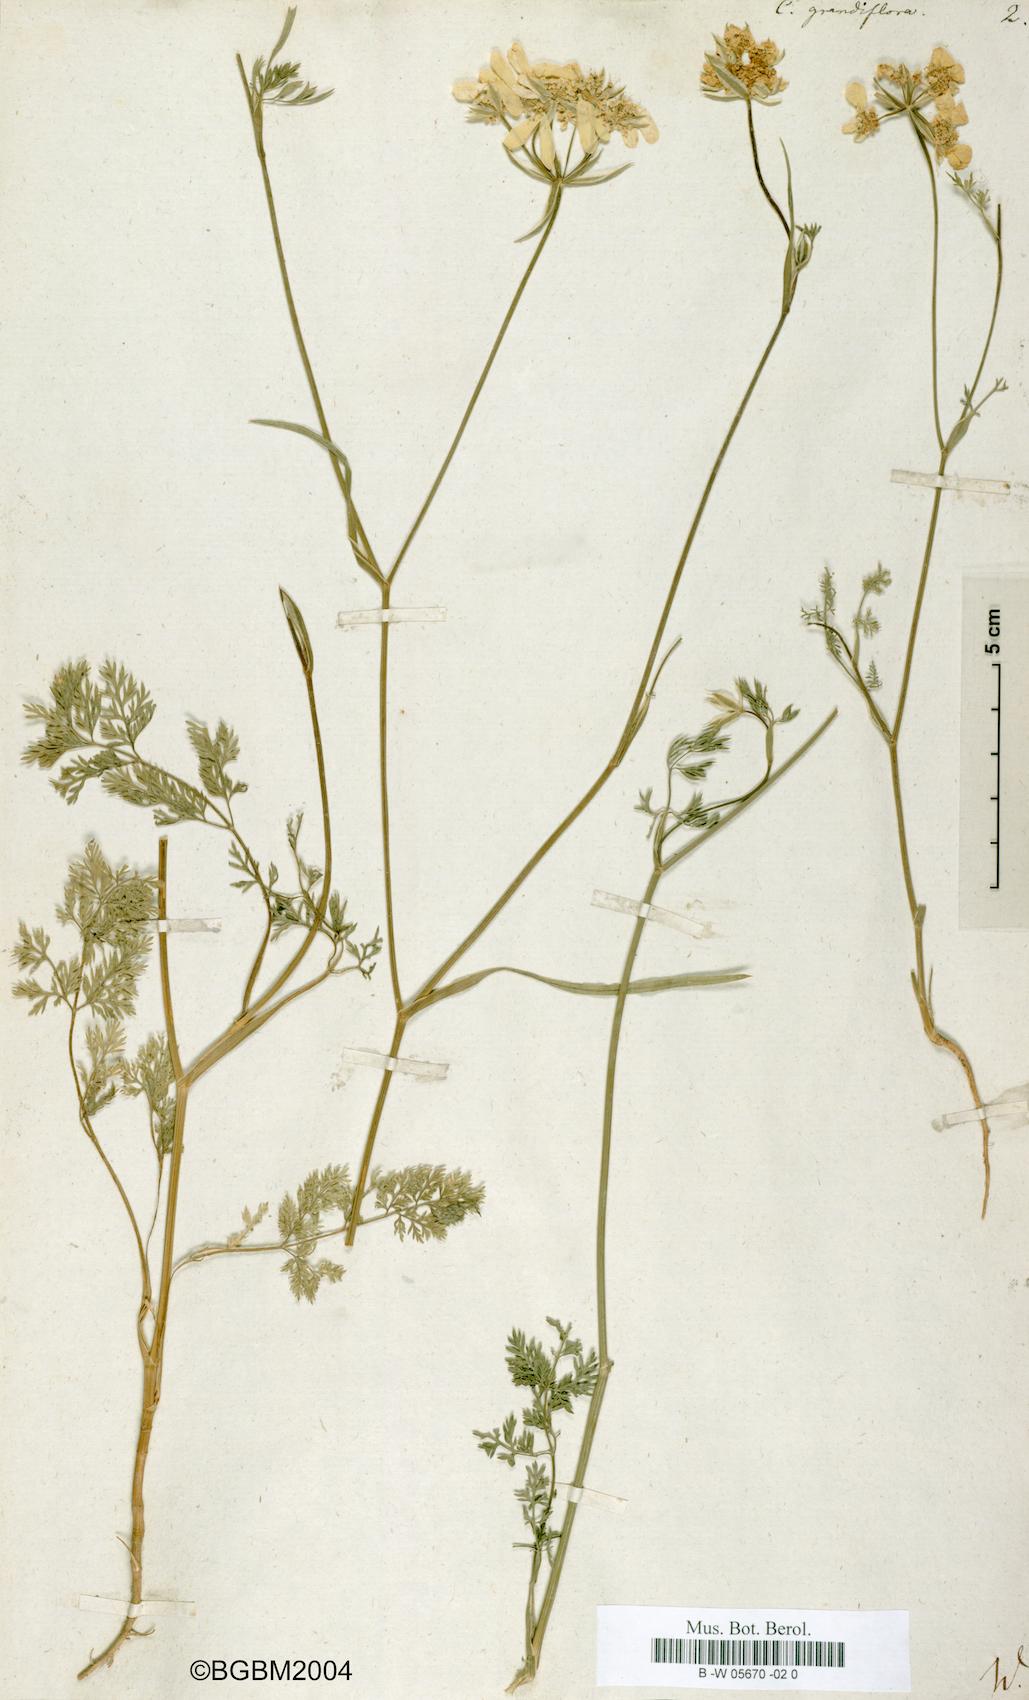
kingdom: Plantae
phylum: Tracheophyta
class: Magnoliopsida
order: Apiales
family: Apiaceae
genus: Caucalis
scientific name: Caucalis grandiflora
